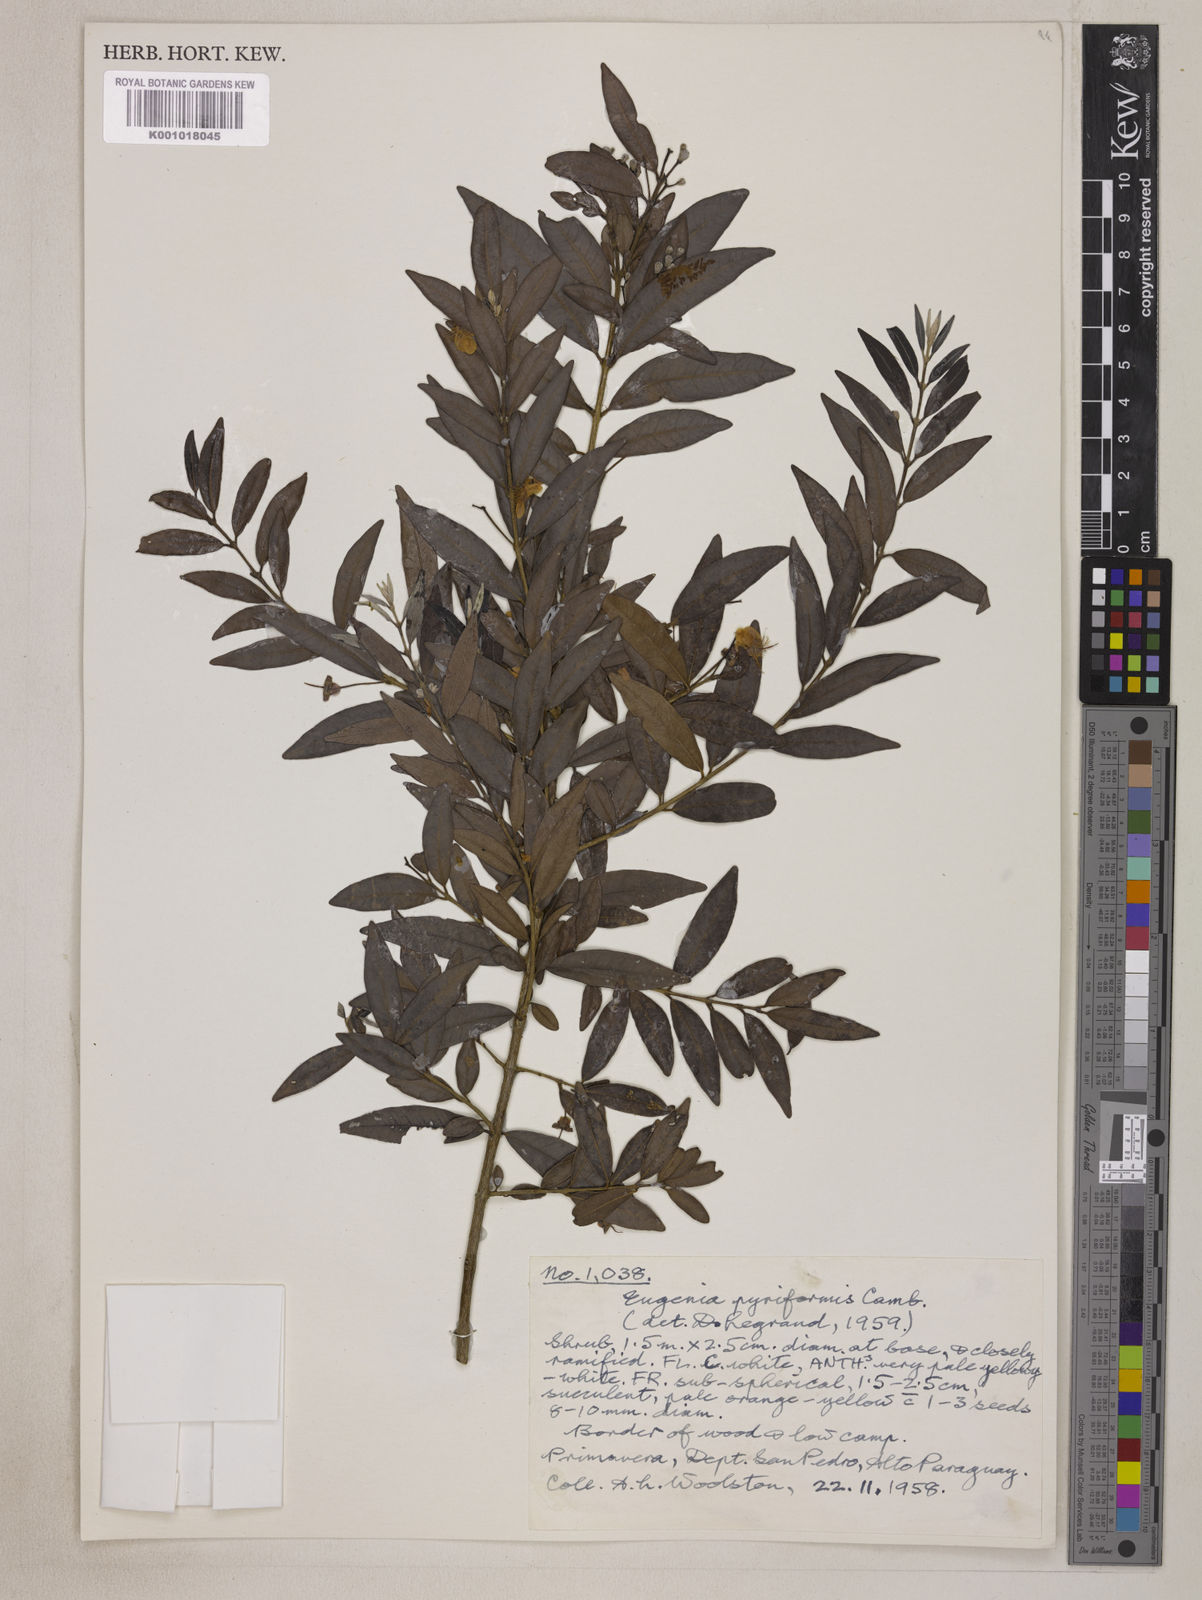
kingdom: Plantae
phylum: Tracheophyta
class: Magnoliopsida
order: Myrtales
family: Myrtaceae
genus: Eugenia
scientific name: Eugenia pyriformis
